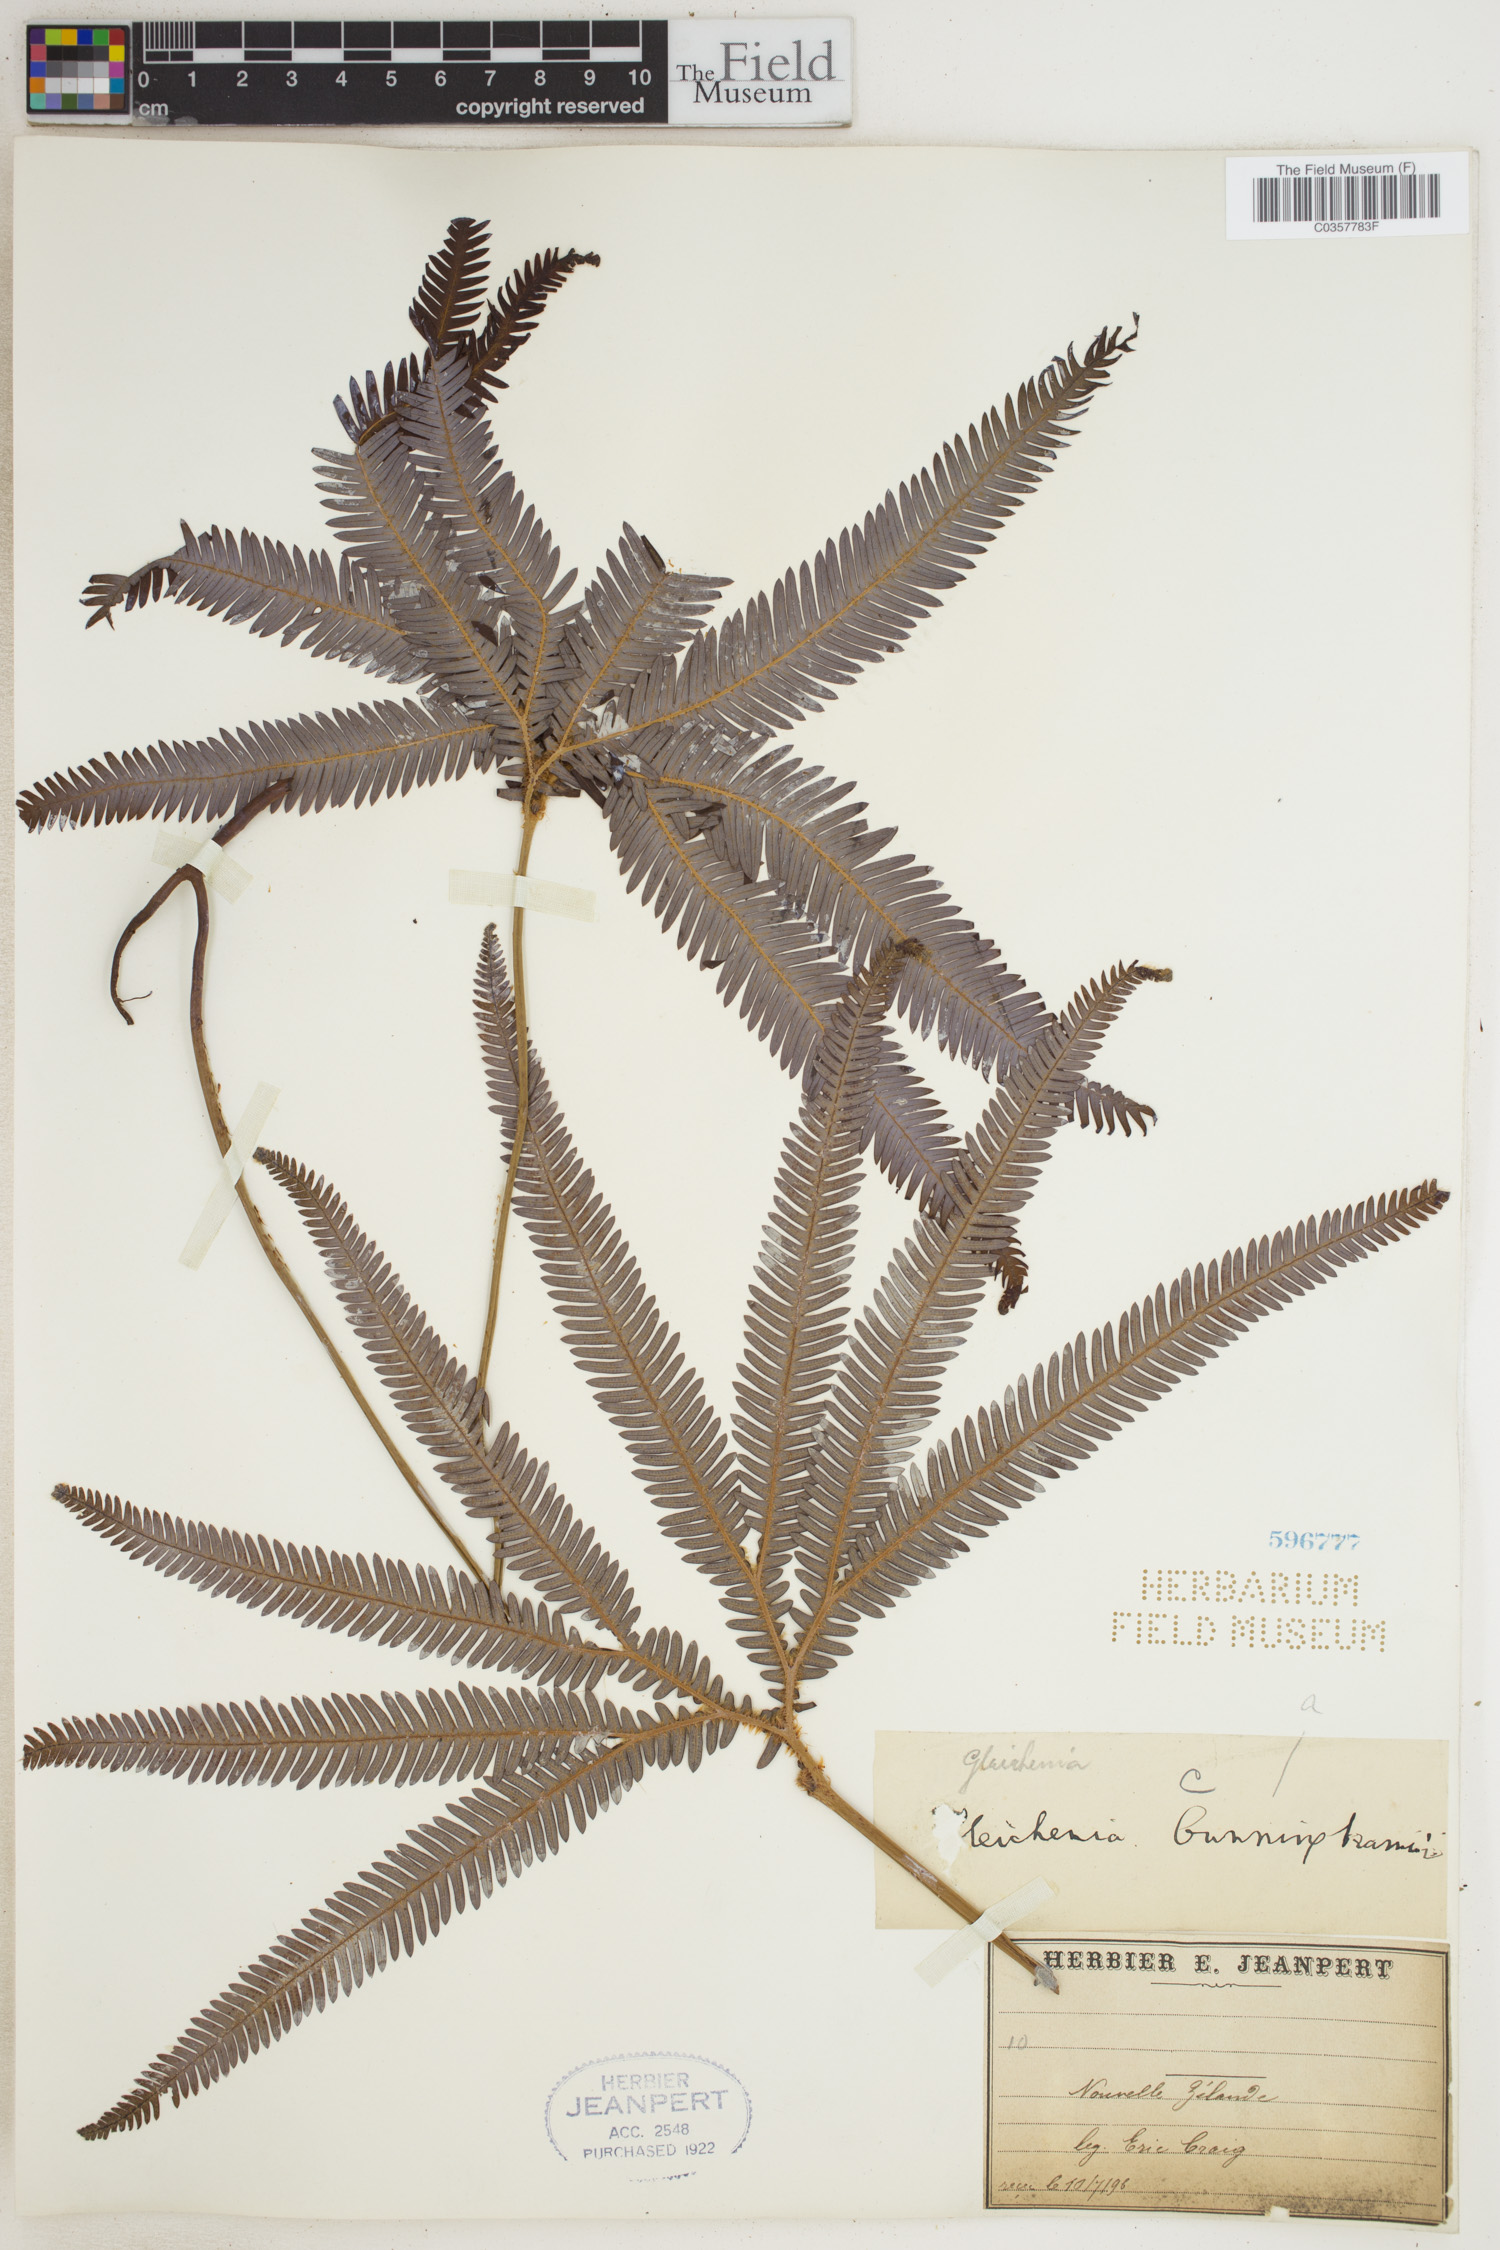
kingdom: Plantae
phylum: Tracheophyta
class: Polypodiopsida
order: Gleicheniales
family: Gleicheniaceae
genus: Gleichenia
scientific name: Gleichenia
